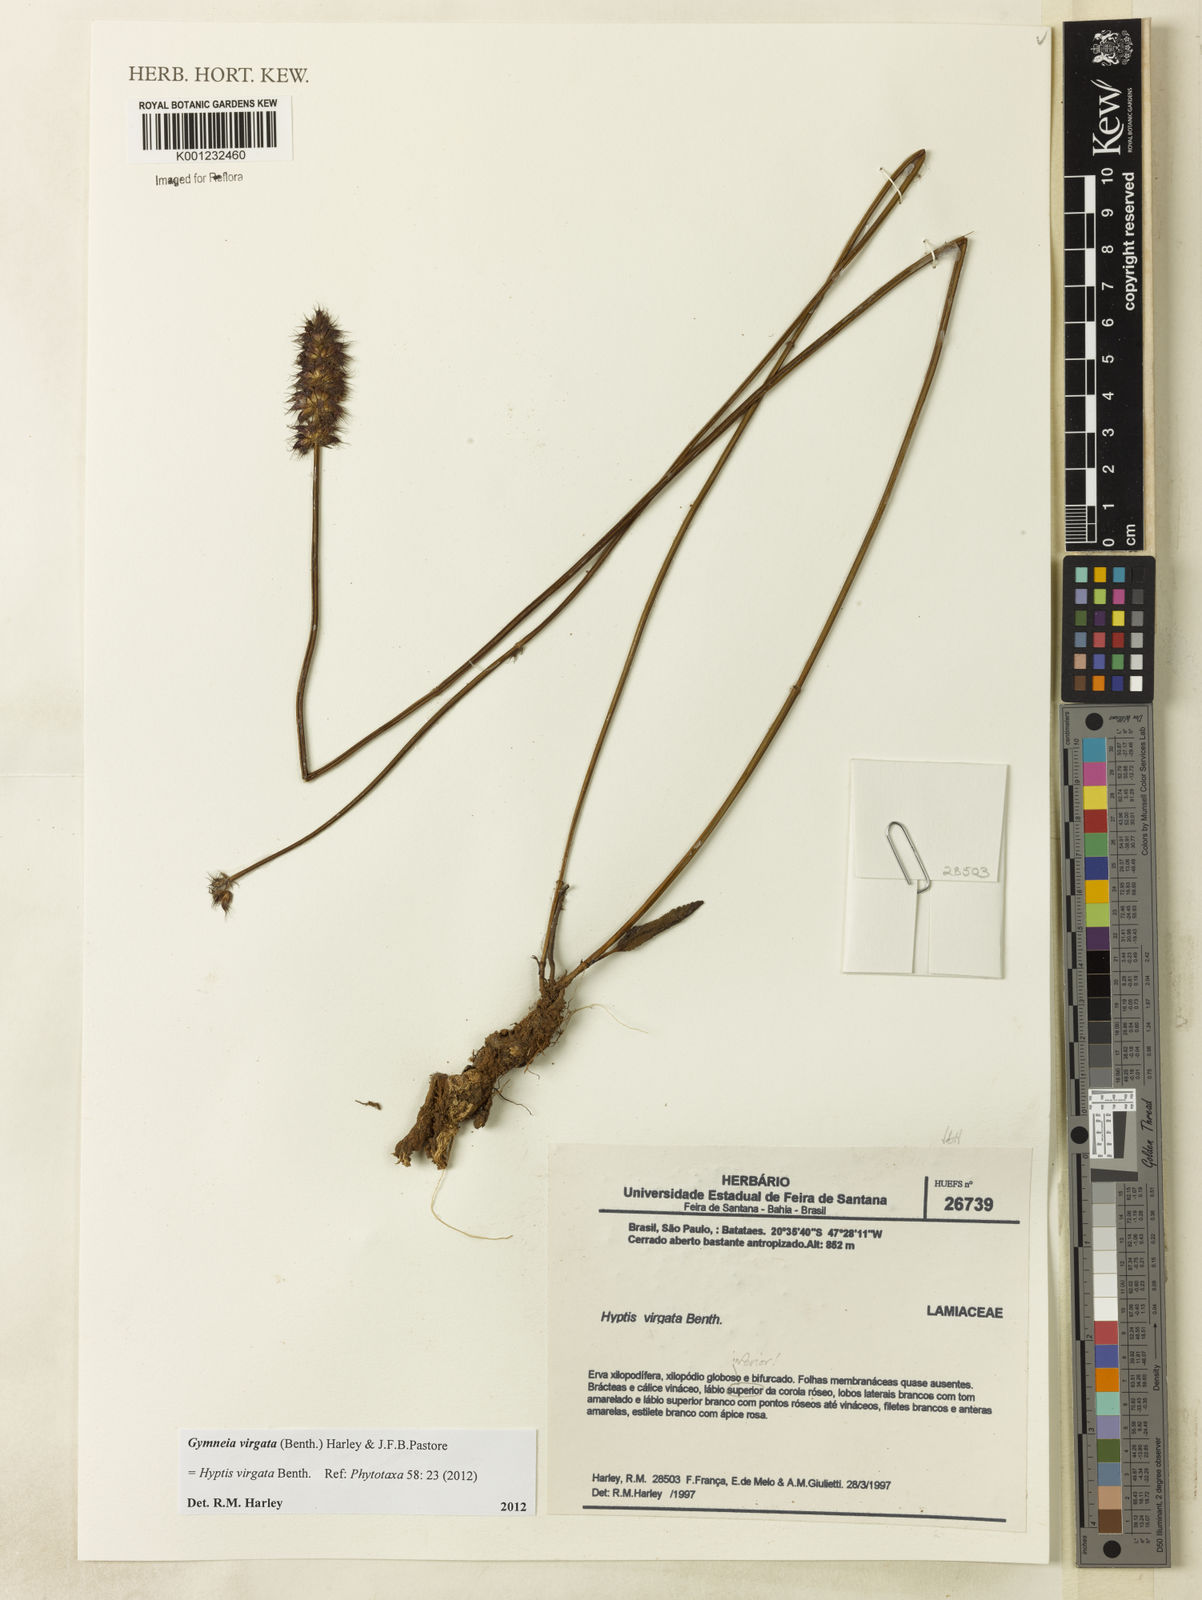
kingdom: Plantae
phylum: Tracheophyta
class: Magnoliopsida
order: Lamiales
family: Lamiaceae
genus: Gymneia
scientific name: Gymneia virgata
